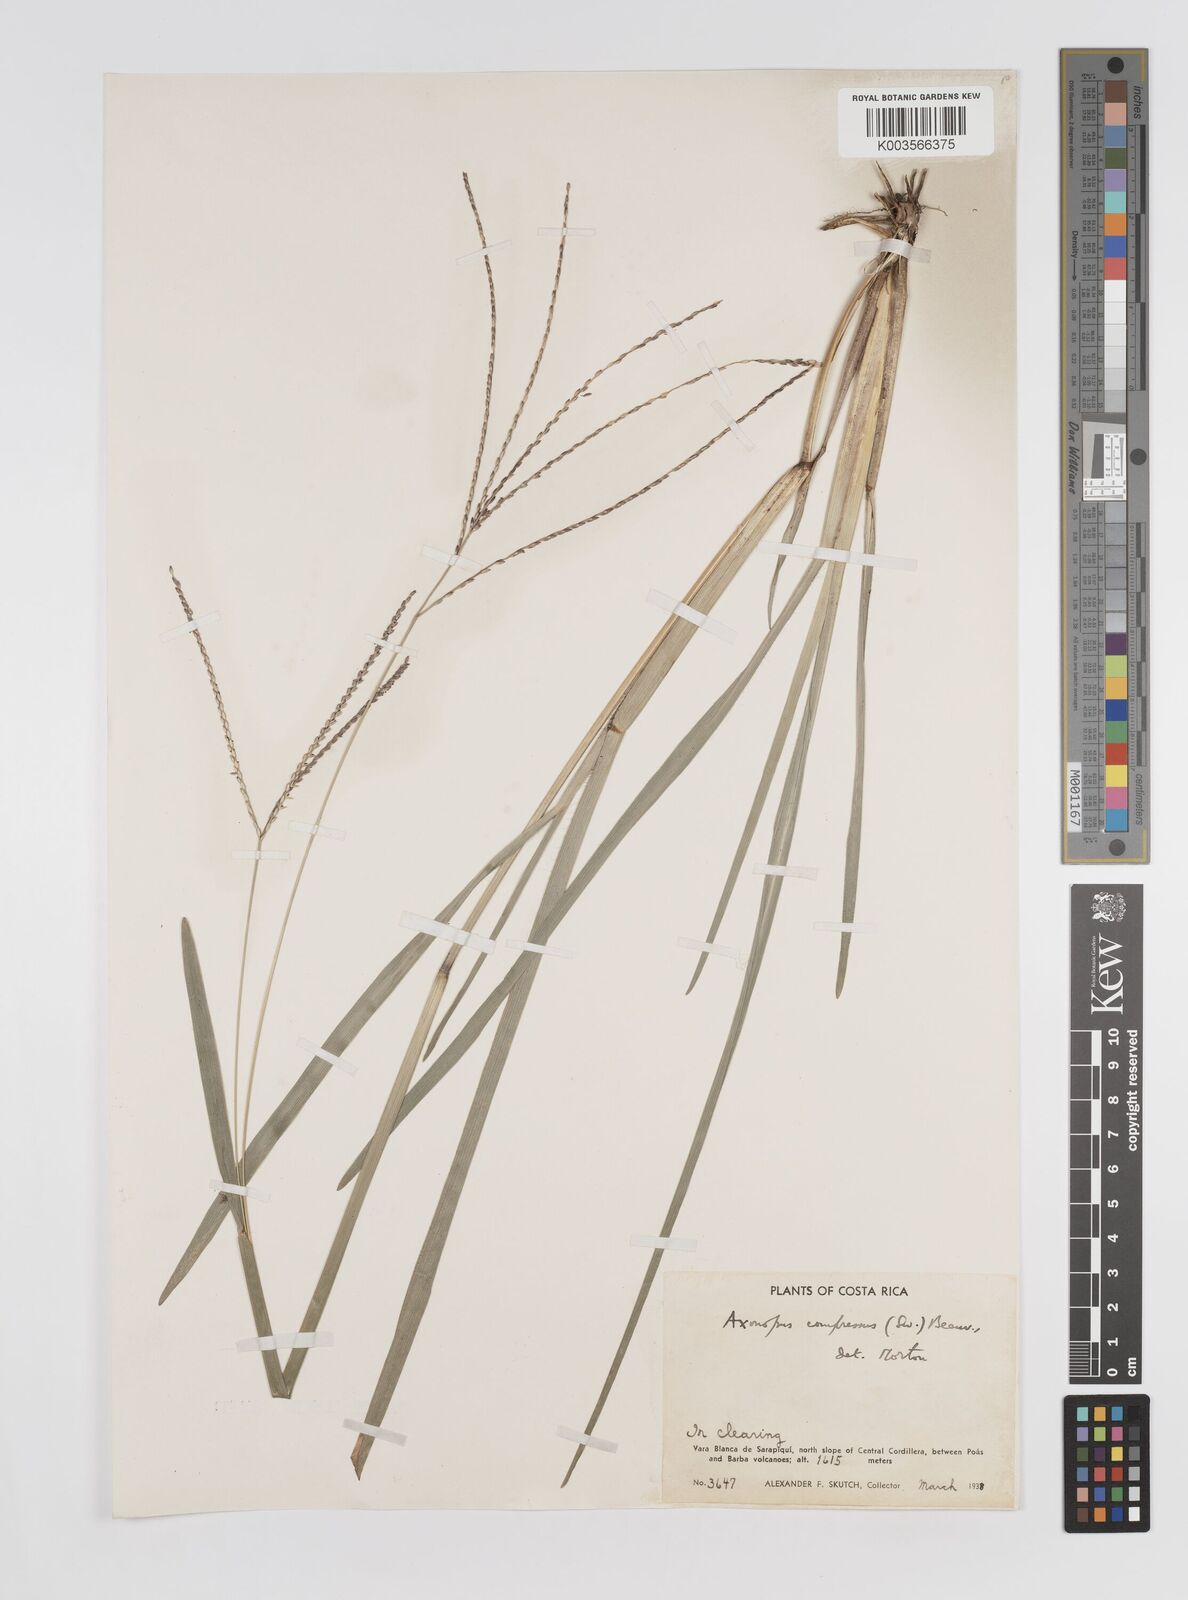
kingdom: Plantae
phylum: Tracheophyta
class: Liliopsida
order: Poales
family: Poaceae
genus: Axonopus
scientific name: Axonopus compressus
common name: American carpet grass
